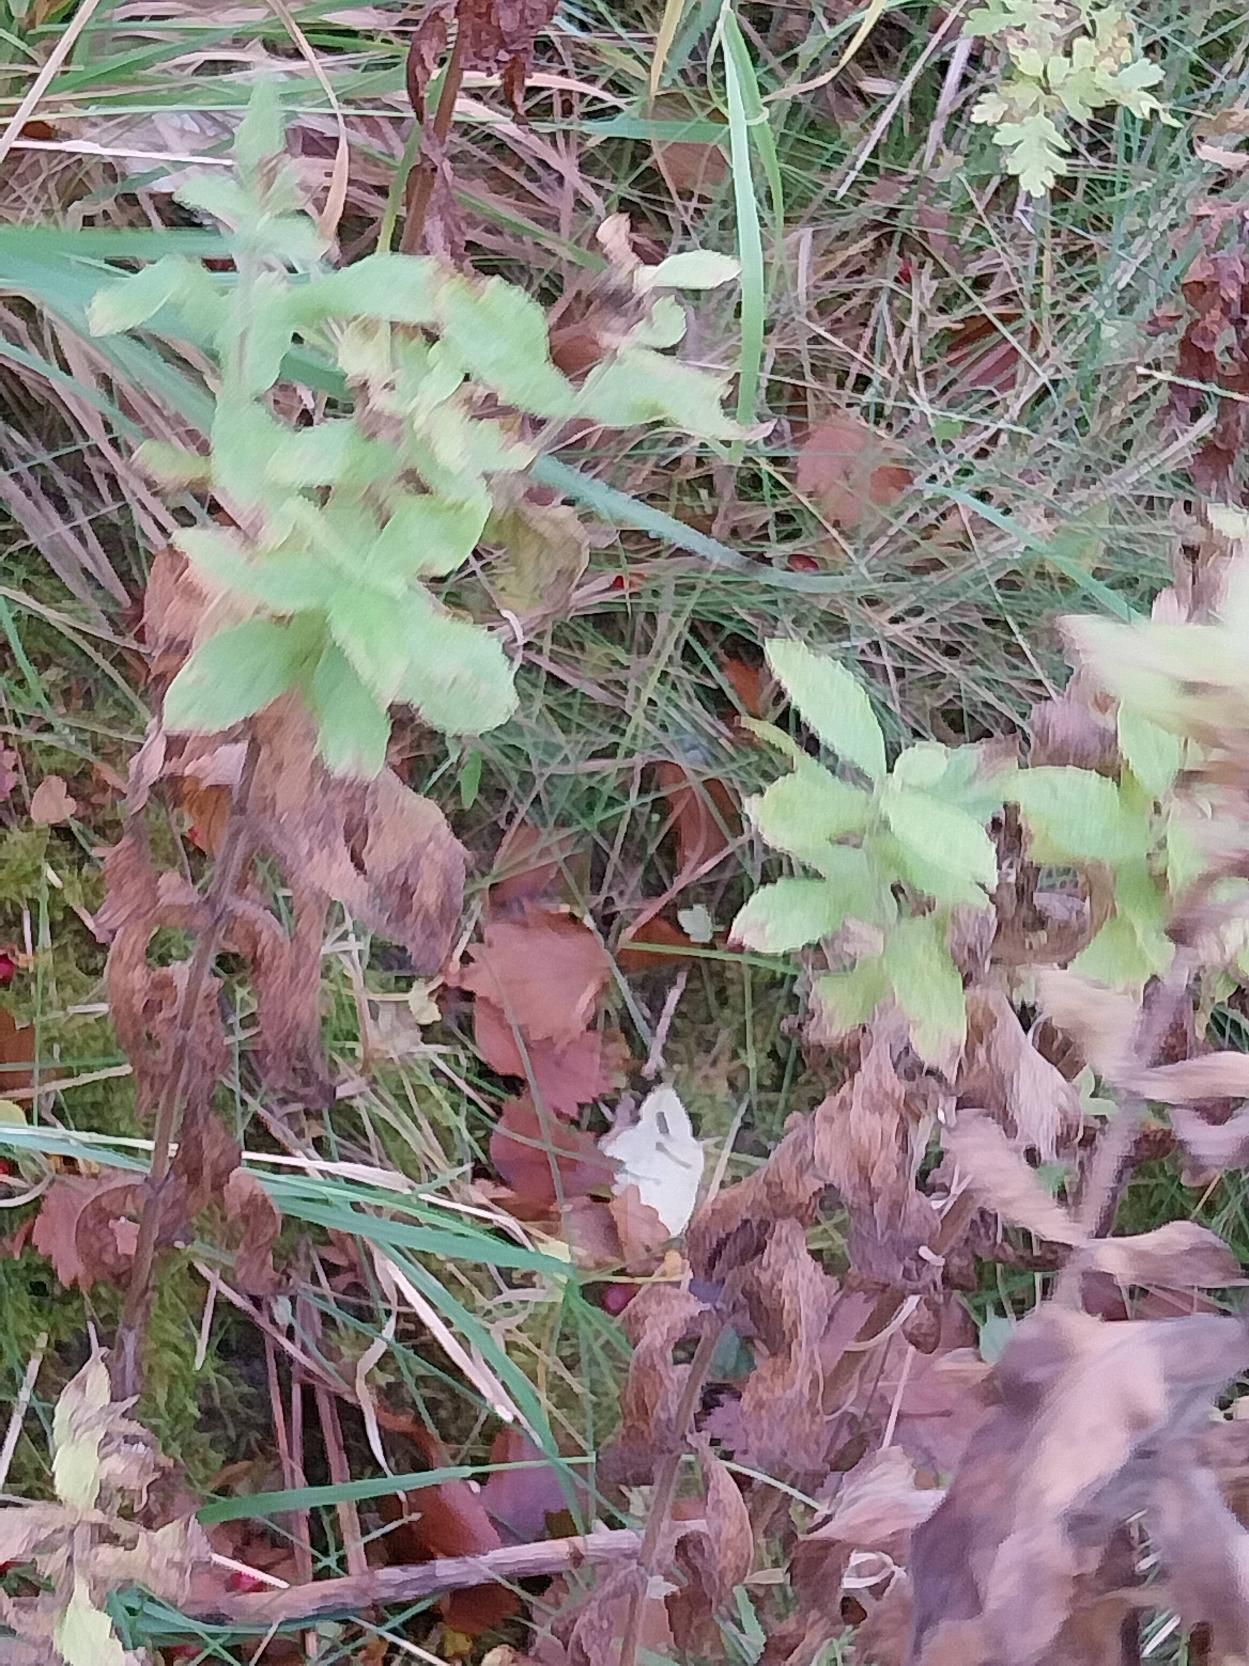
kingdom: Plantae
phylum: Tracheophyta
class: Magnoliopsida
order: Myrtales
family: Onagraceae
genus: Epilobium
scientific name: Epilobium hirsutum
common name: Lådden dueurt
